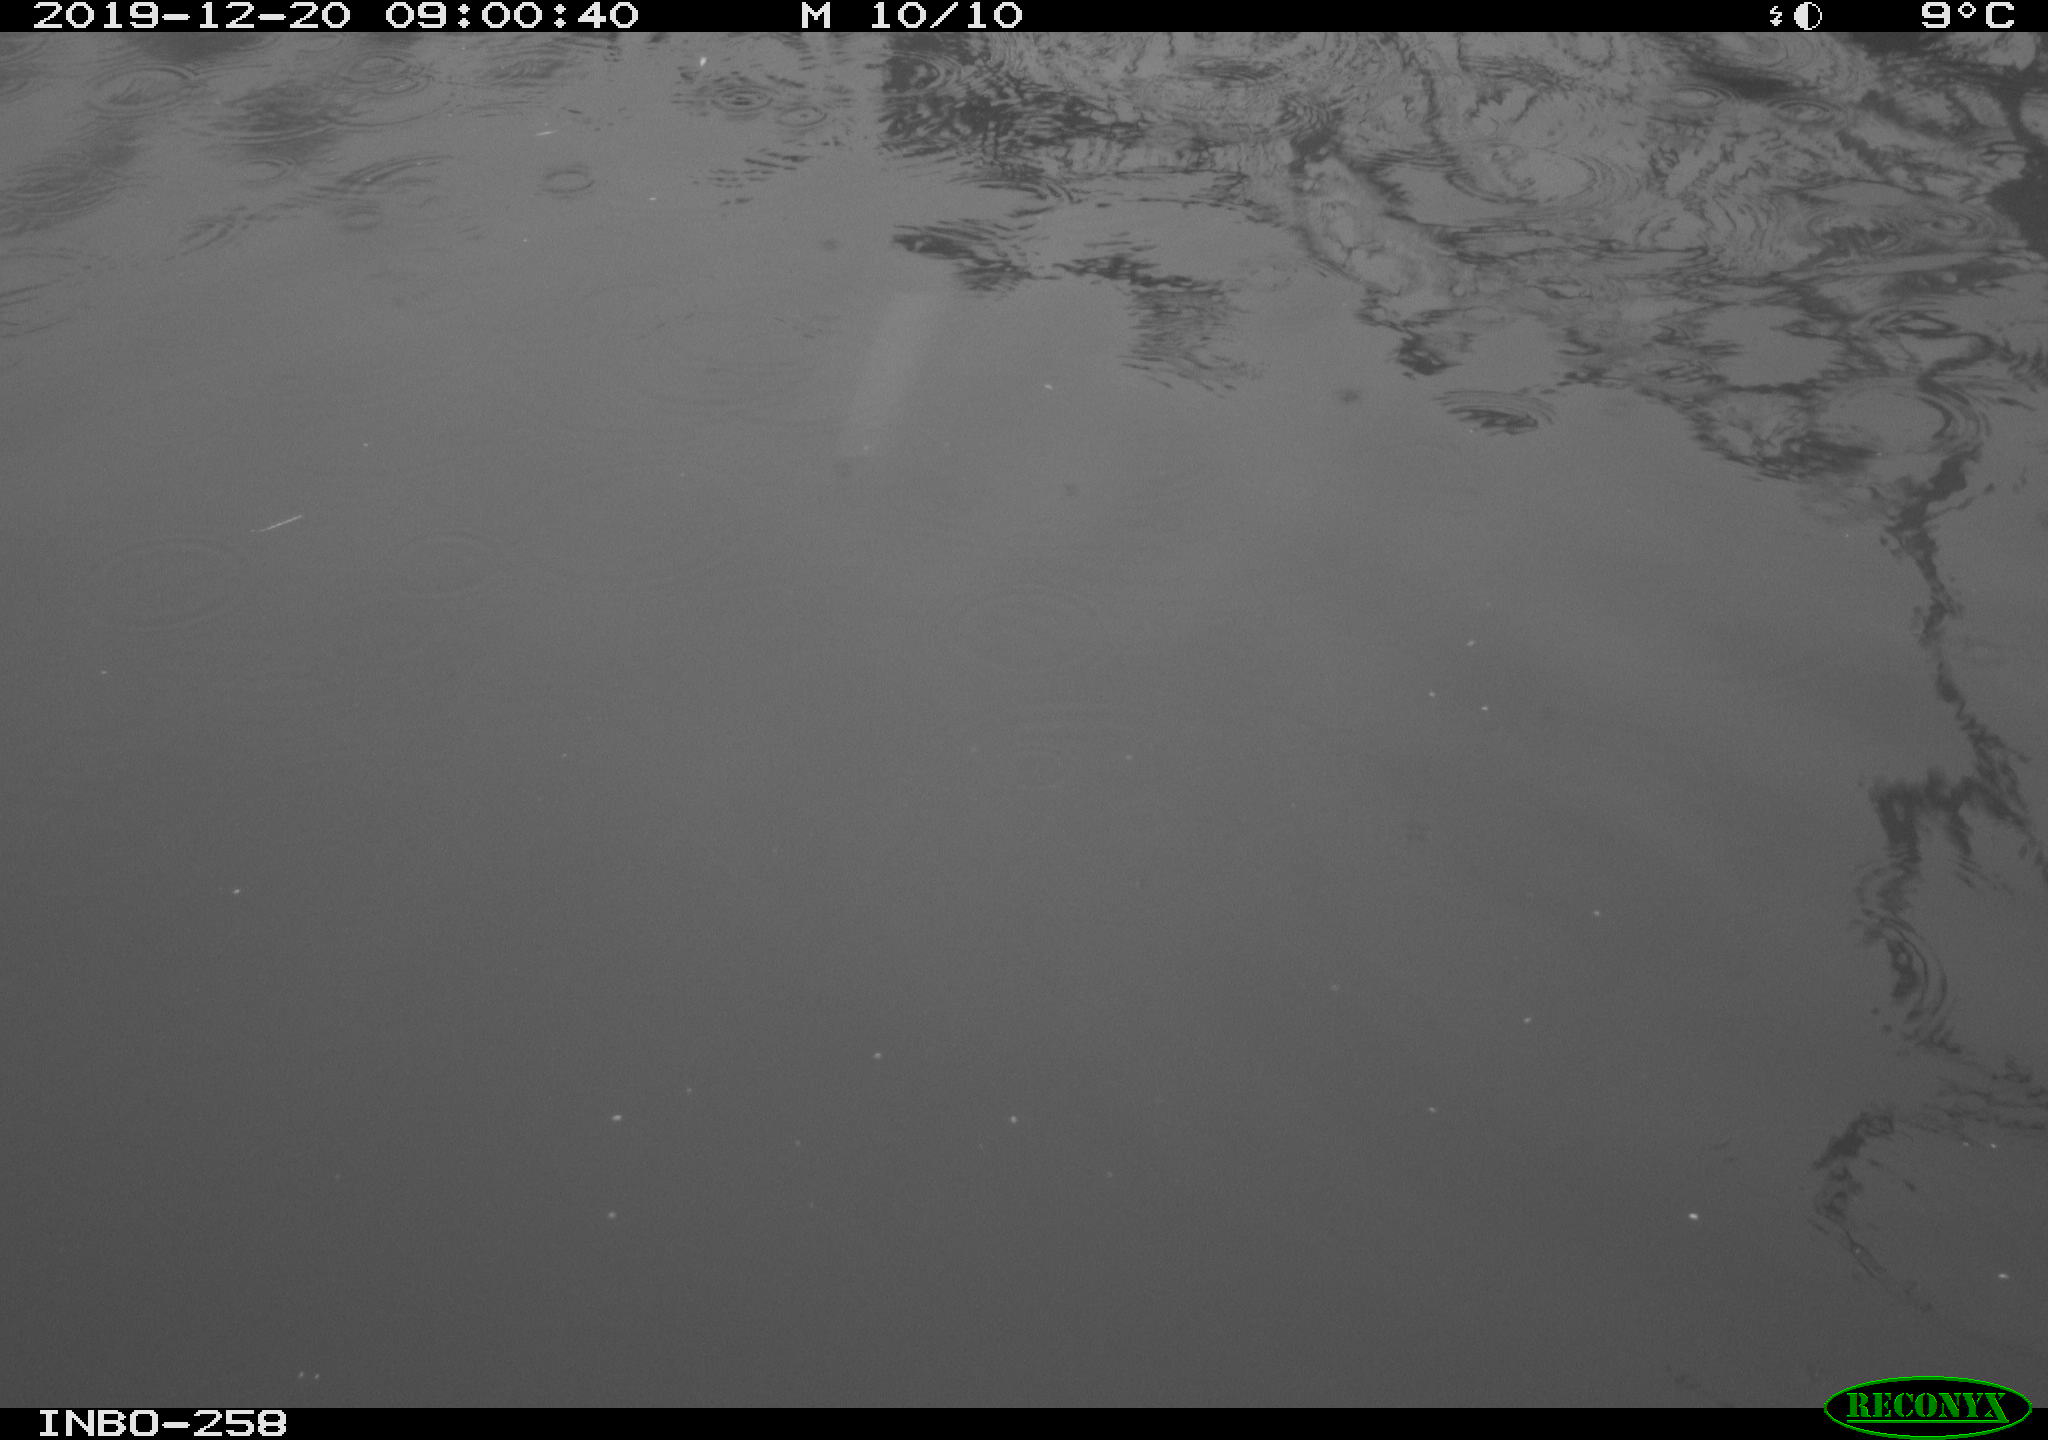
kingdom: Animalia
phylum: Chordata
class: Aves
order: Gruiformes
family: Rallidae
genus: Gallinula
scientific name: Gallinula chloropus
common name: Common moorhen
